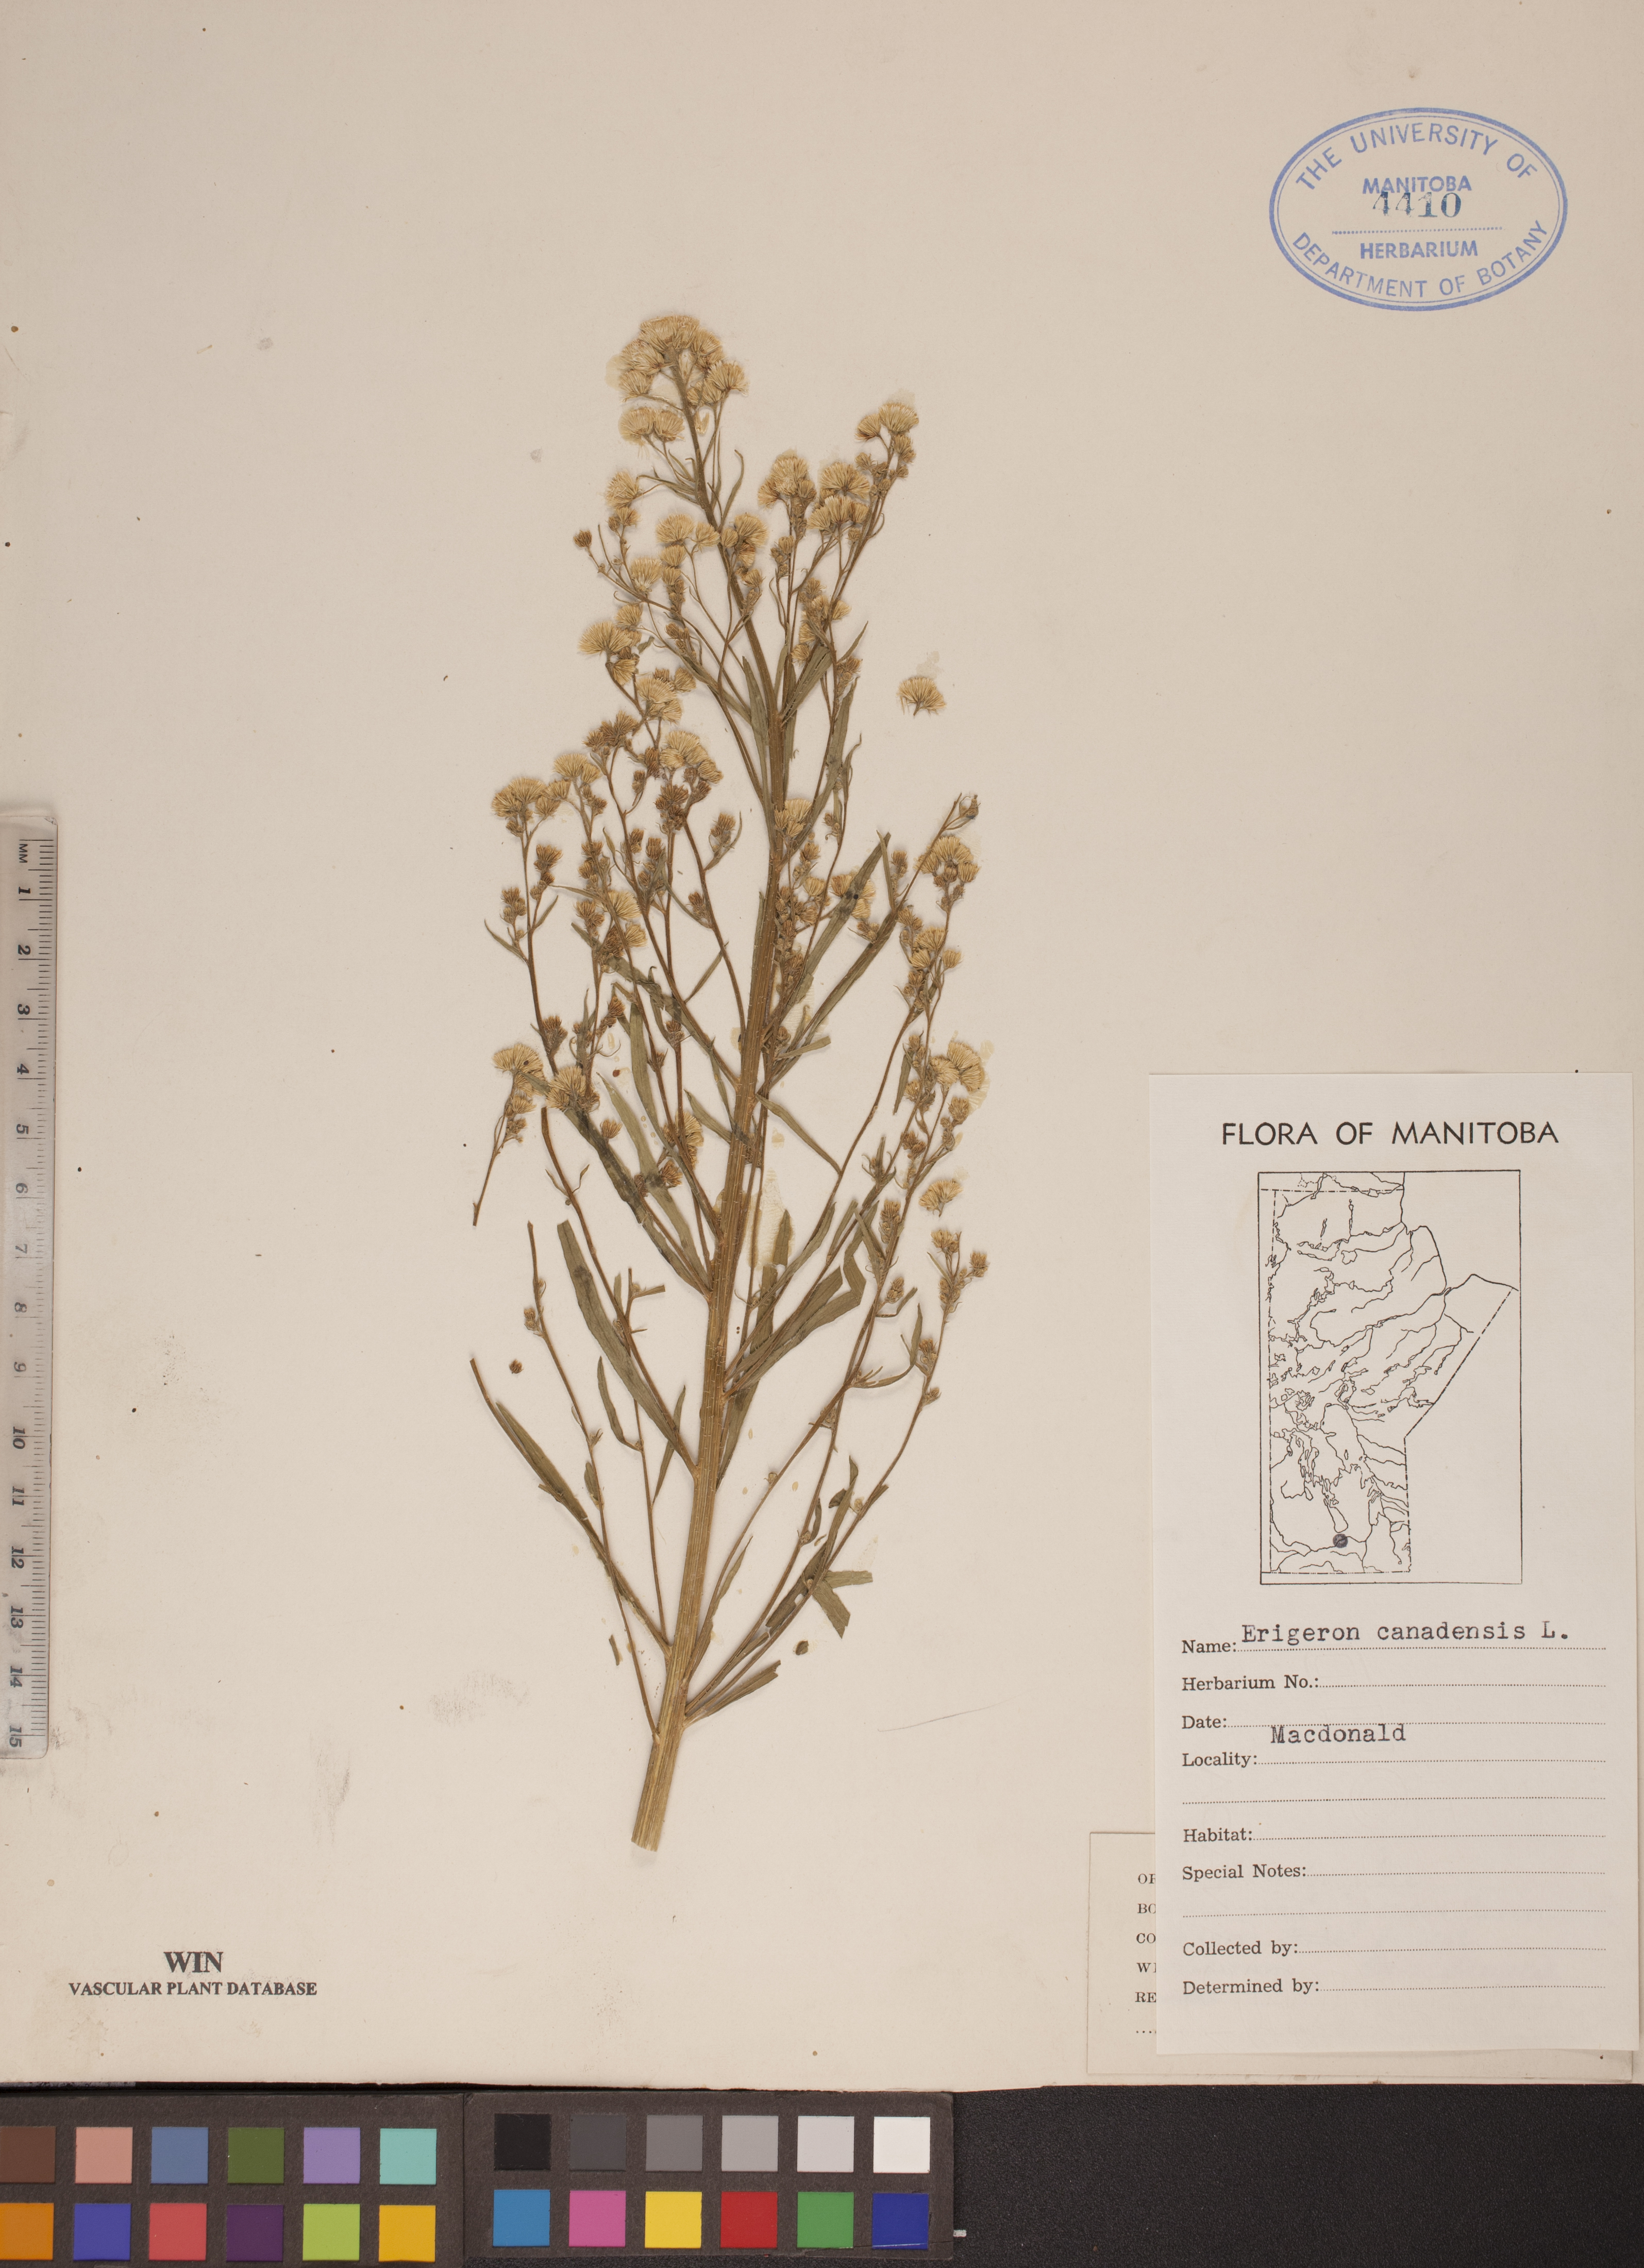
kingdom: Plantae
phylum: Tracheophyta
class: Magnoliopsida
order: Asterales
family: Asteraceae
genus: Erigeron
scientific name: Erigeron canadensis
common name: Canadian fleabane
